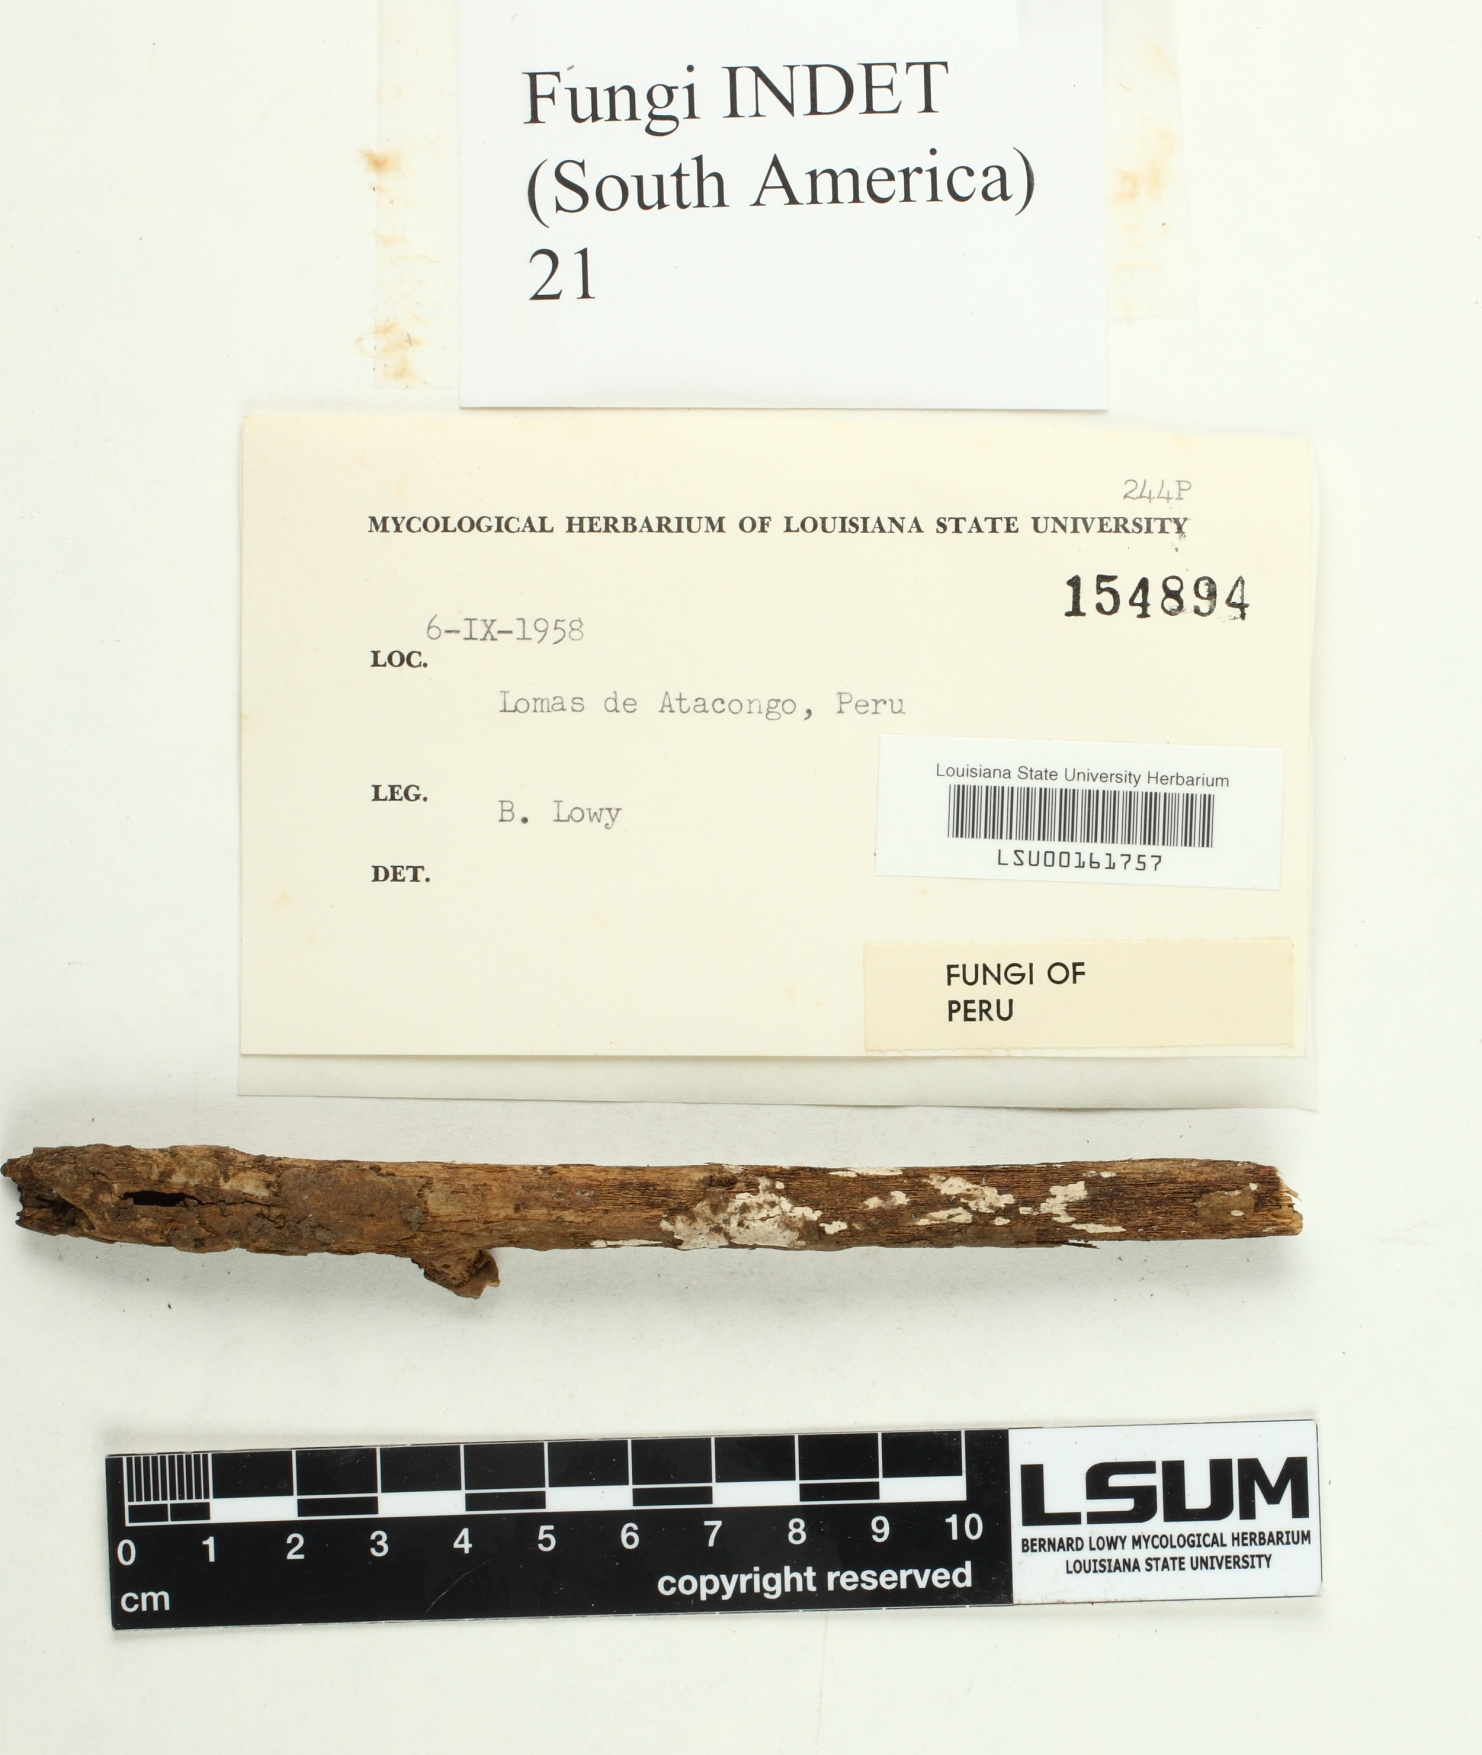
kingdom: Fungi
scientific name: Fungi
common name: Fungi
